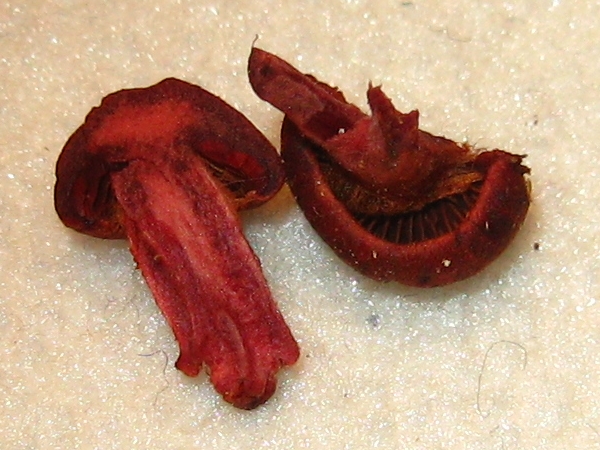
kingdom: Fungi
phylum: Basidiomycota
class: Agaricomycetes
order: Agaricales
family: Cortinariaceae
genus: Cortinarius
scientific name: Cortinarius sanguineus
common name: blodrød slørhat
